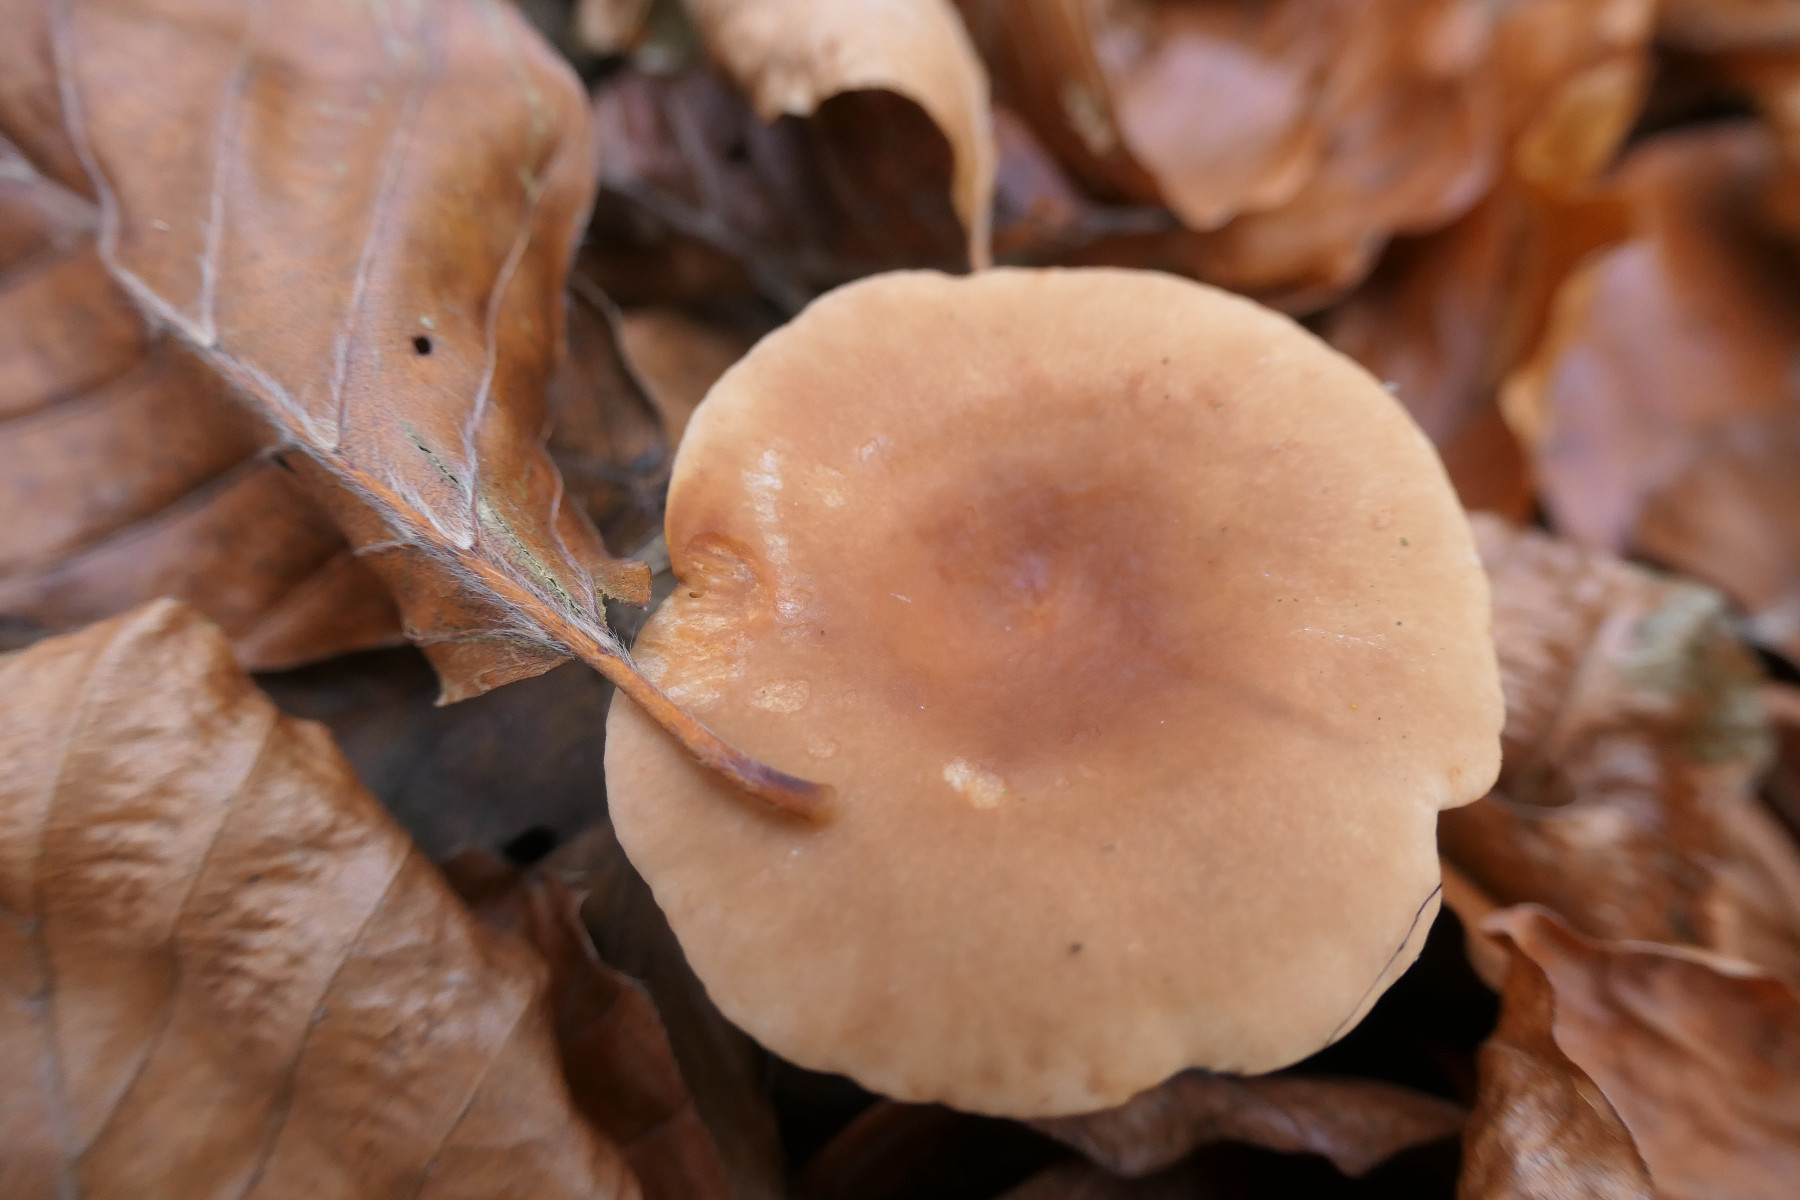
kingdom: Fungi
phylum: Basidiomycota
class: Agaricomycetes
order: Russulales
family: Russulaceae
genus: Lactarius
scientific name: Lactarius tabidus
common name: rynket mælkehat
